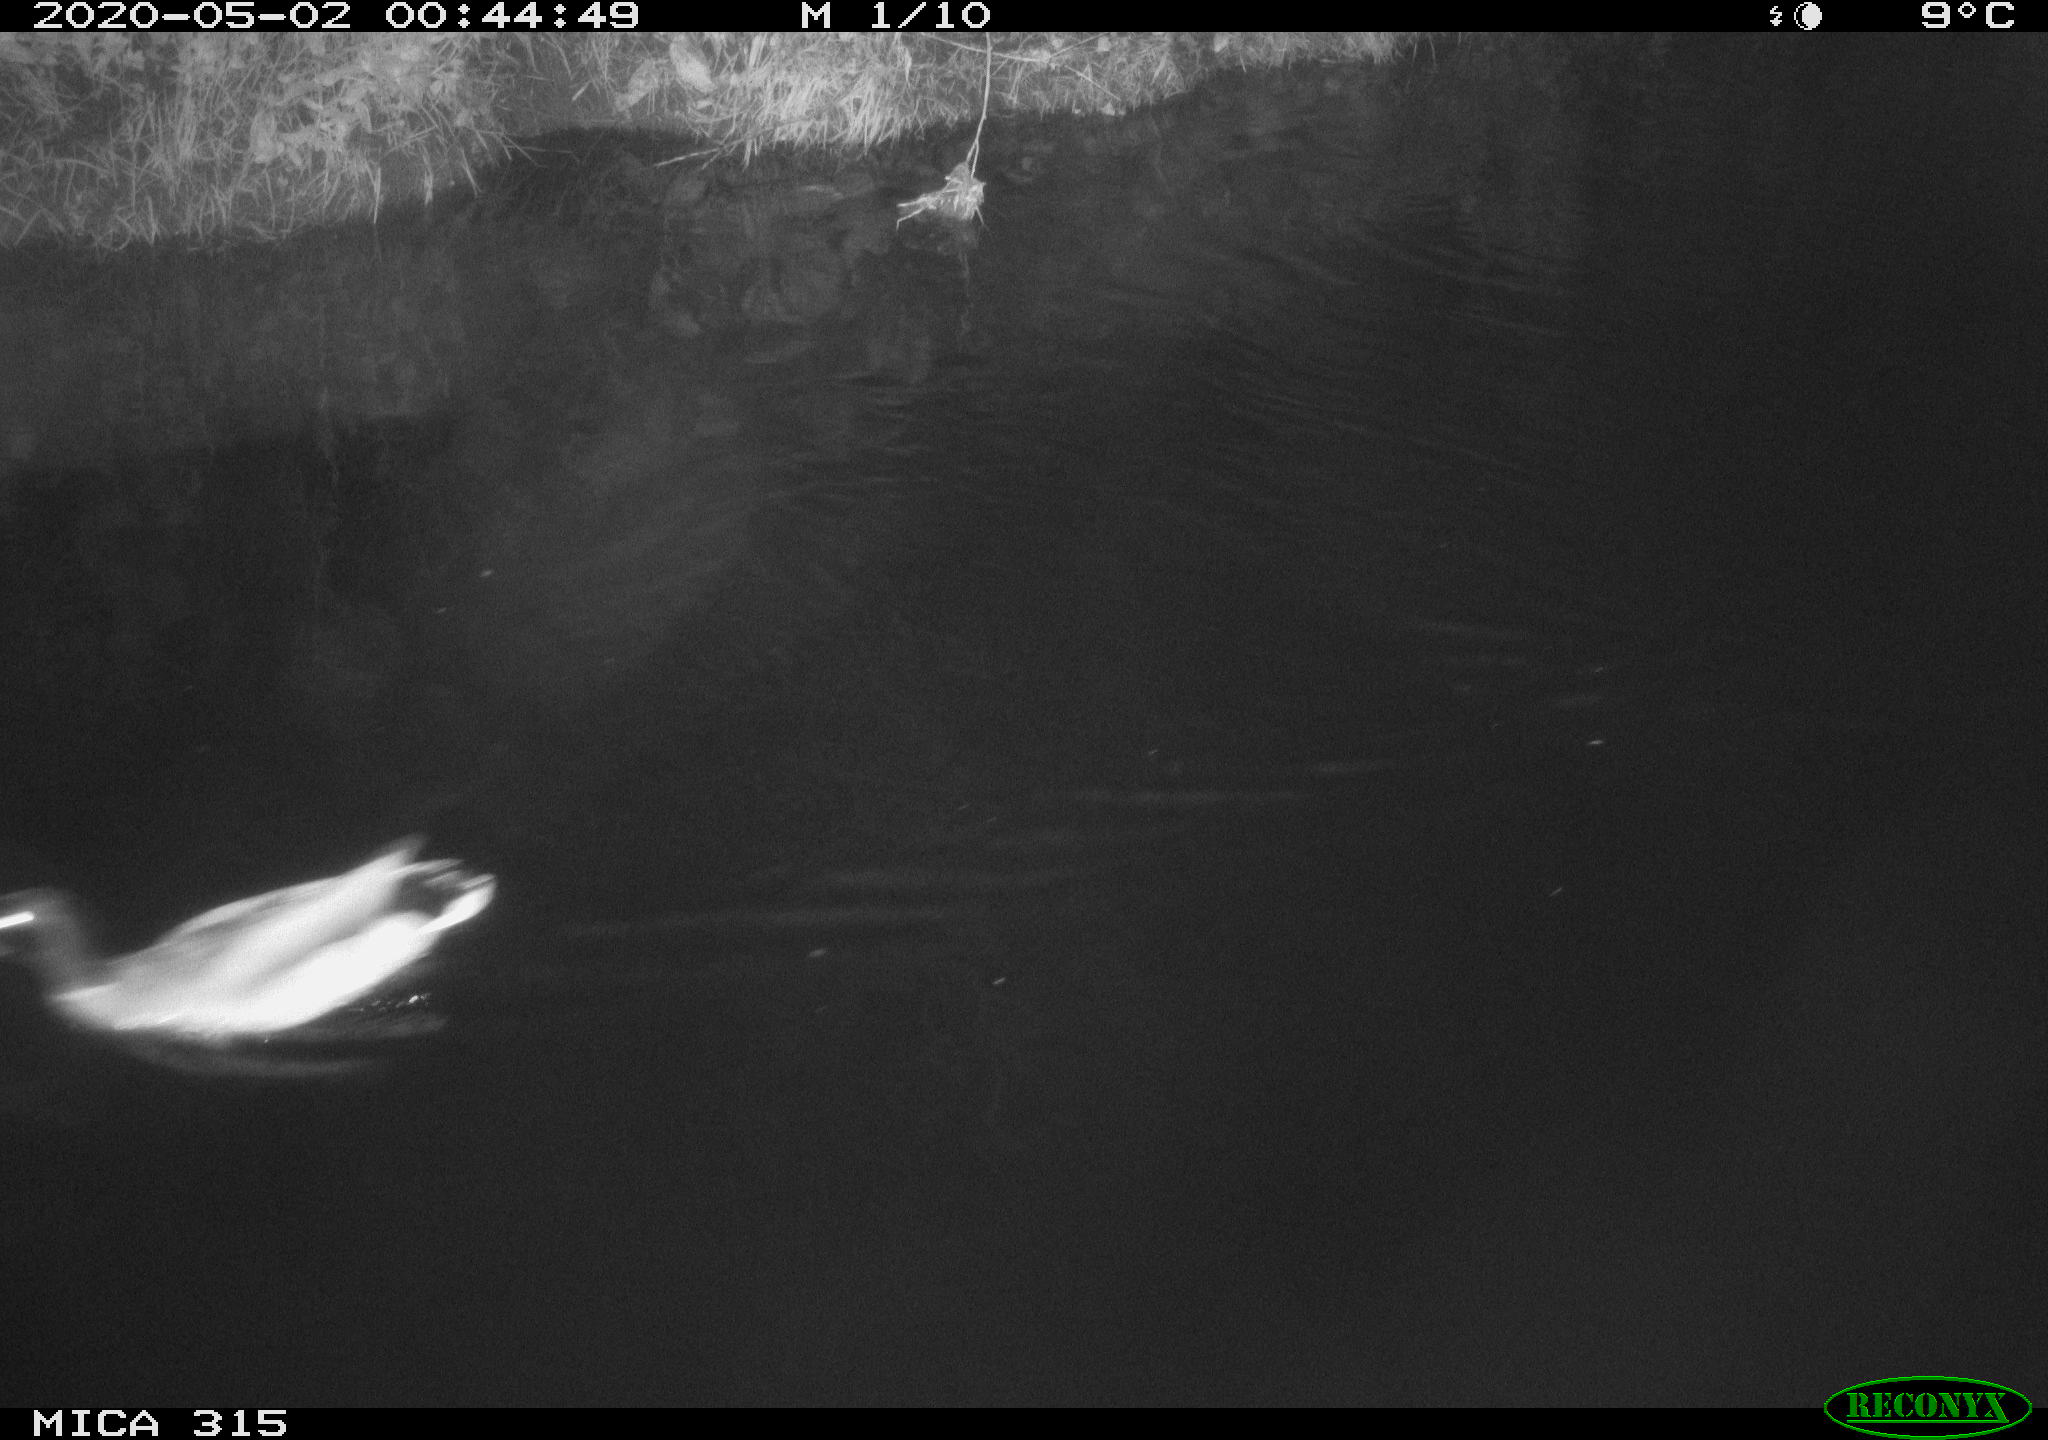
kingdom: Animalia
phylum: Chordata
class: Aves
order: Anseriformes
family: Anatidae
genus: Anas
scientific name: Anas platyrhynchos
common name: Mallard
